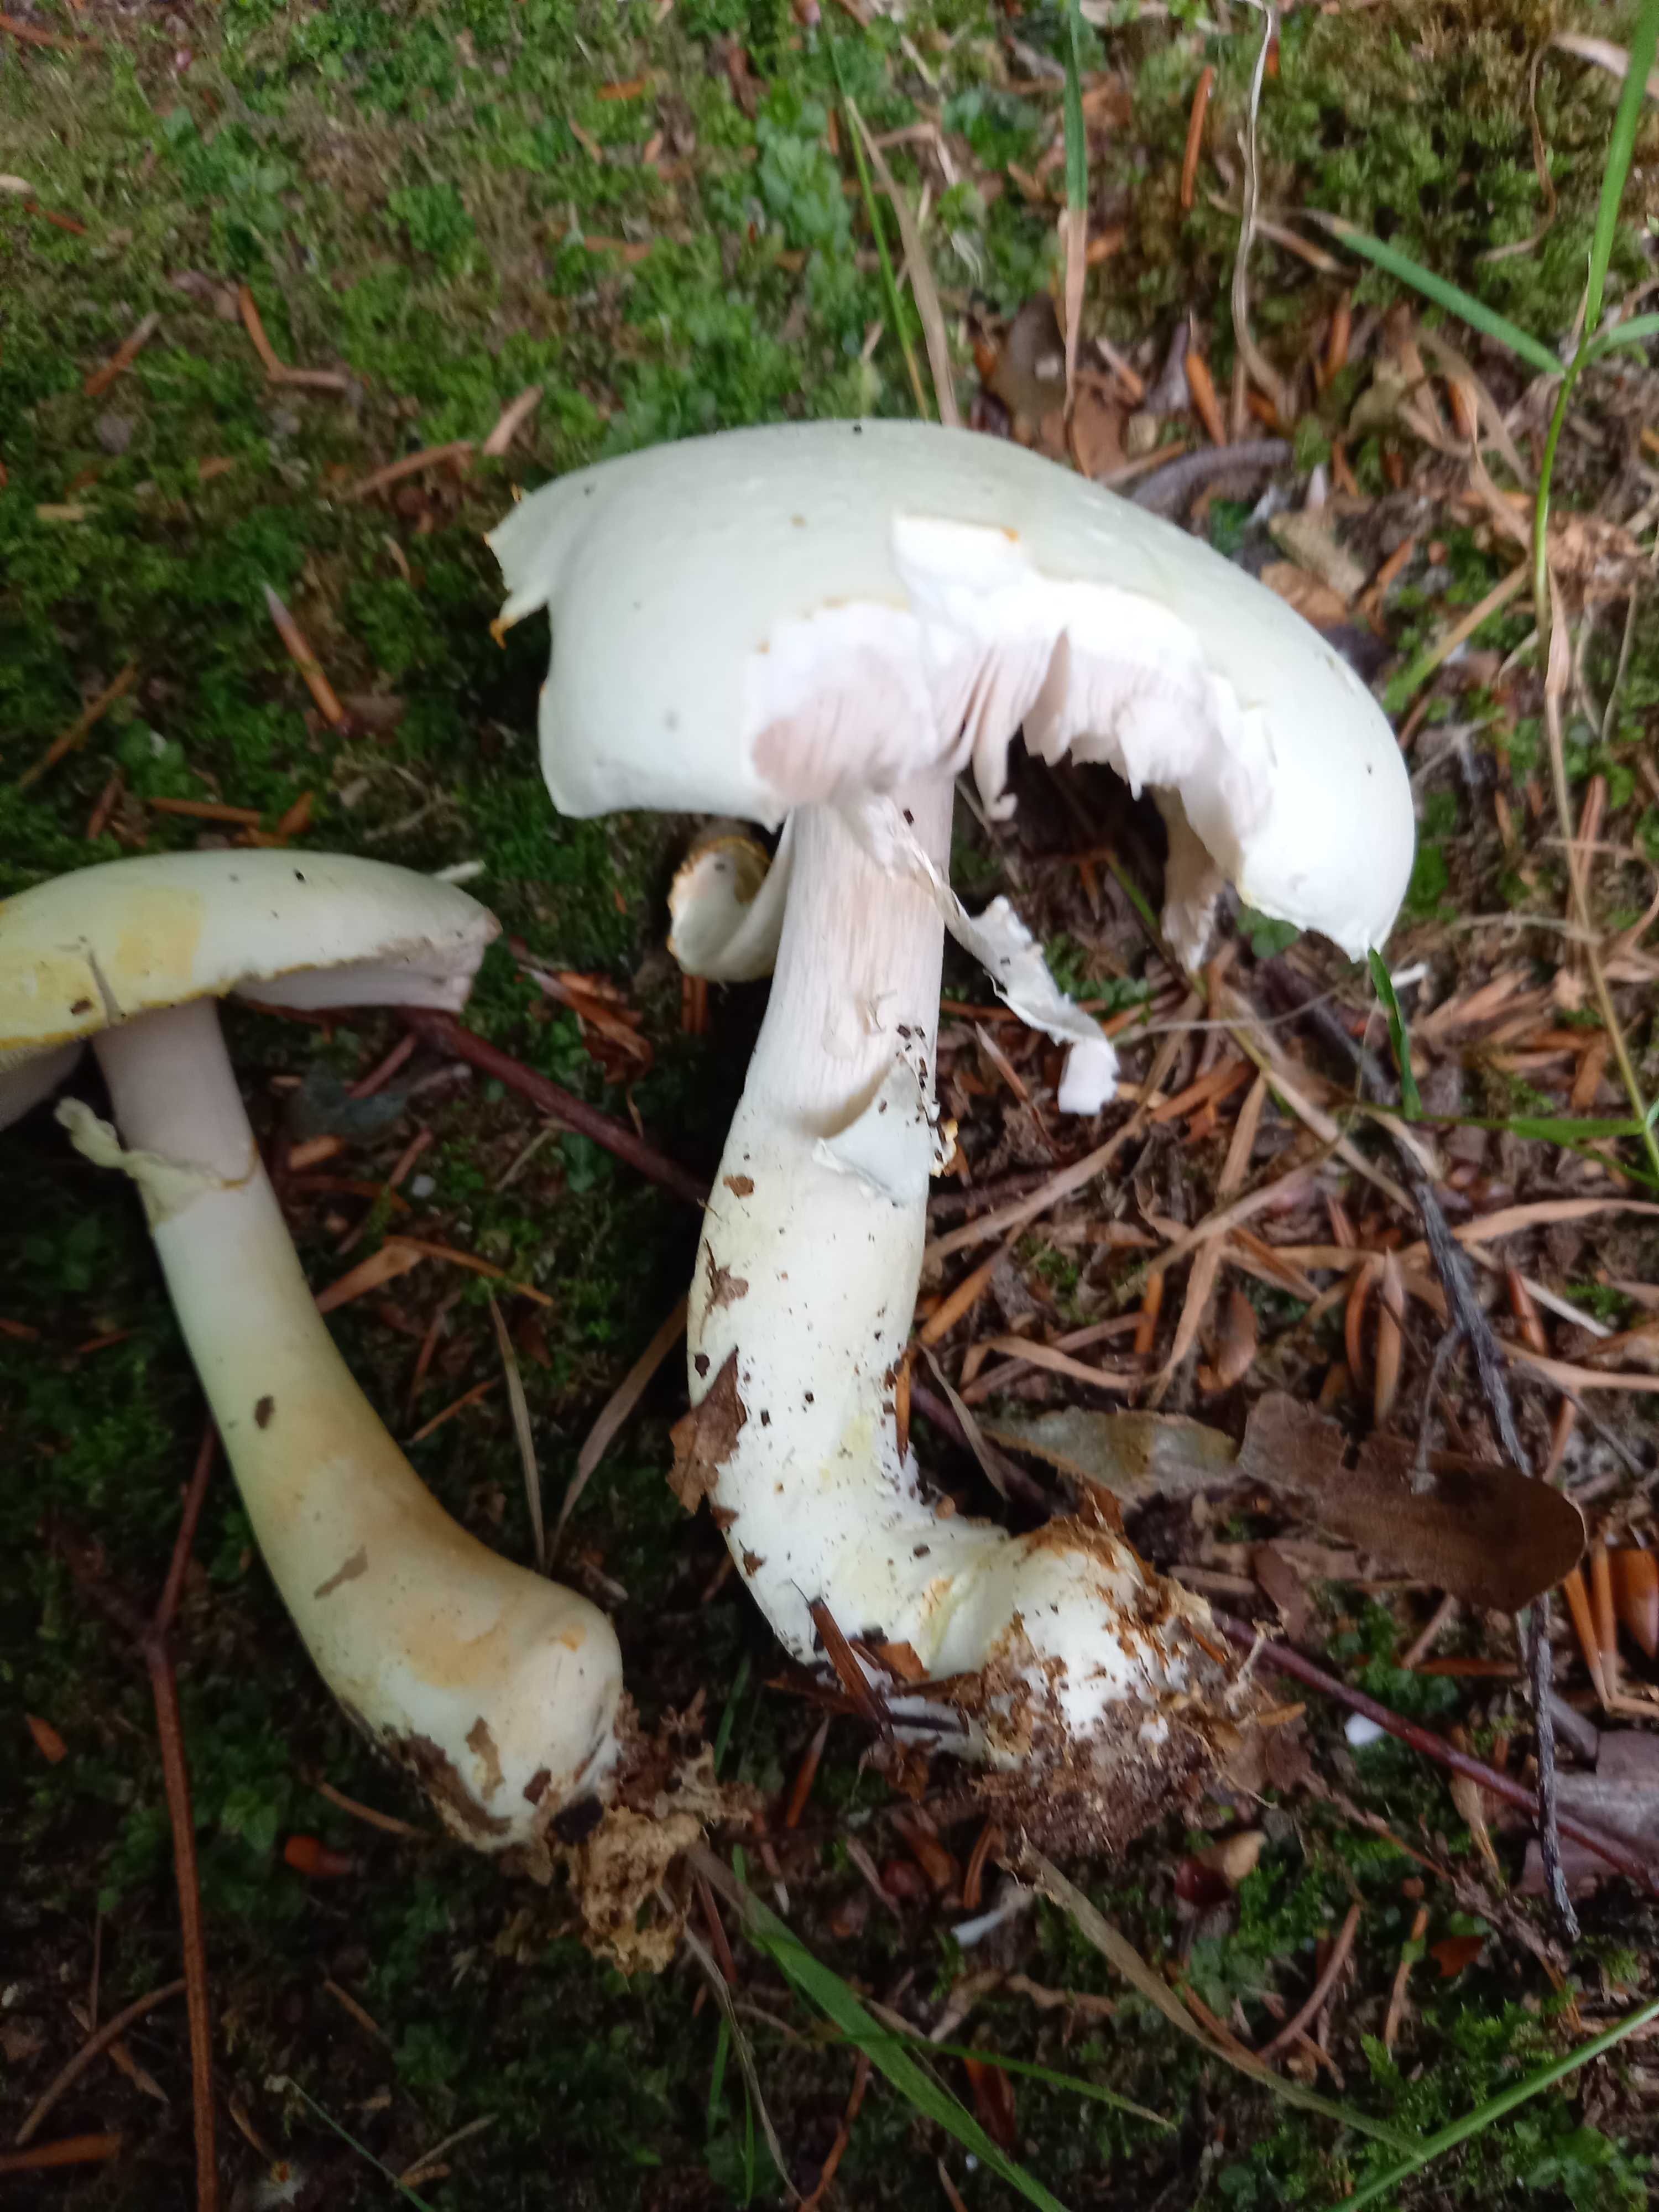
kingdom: Fungi
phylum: Basidiomycota
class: Agaricomycetes
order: Agaricales
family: Agaricaceae
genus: Agaricus
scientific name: Agaricus sylvicola
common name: skiveknoldet champignon
